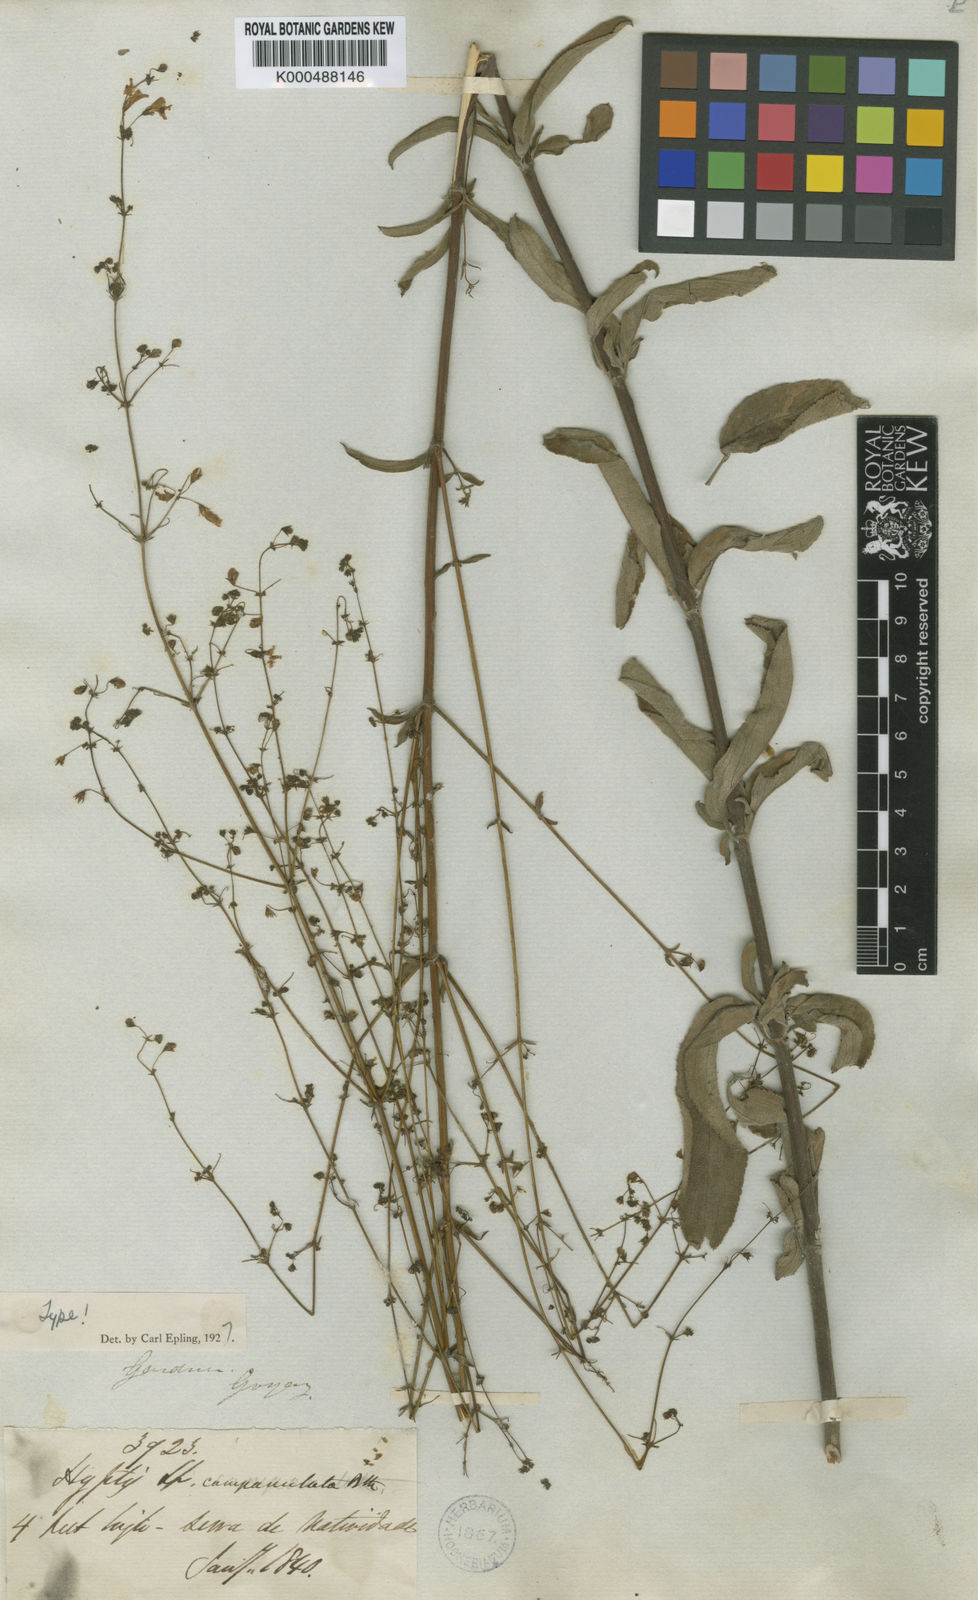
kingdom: Plantae
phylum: Tracheophyta
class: Magnoliopsida
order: Lamiales
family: Lamiaceae
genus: Hypenia
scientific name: Hypenia simplex
